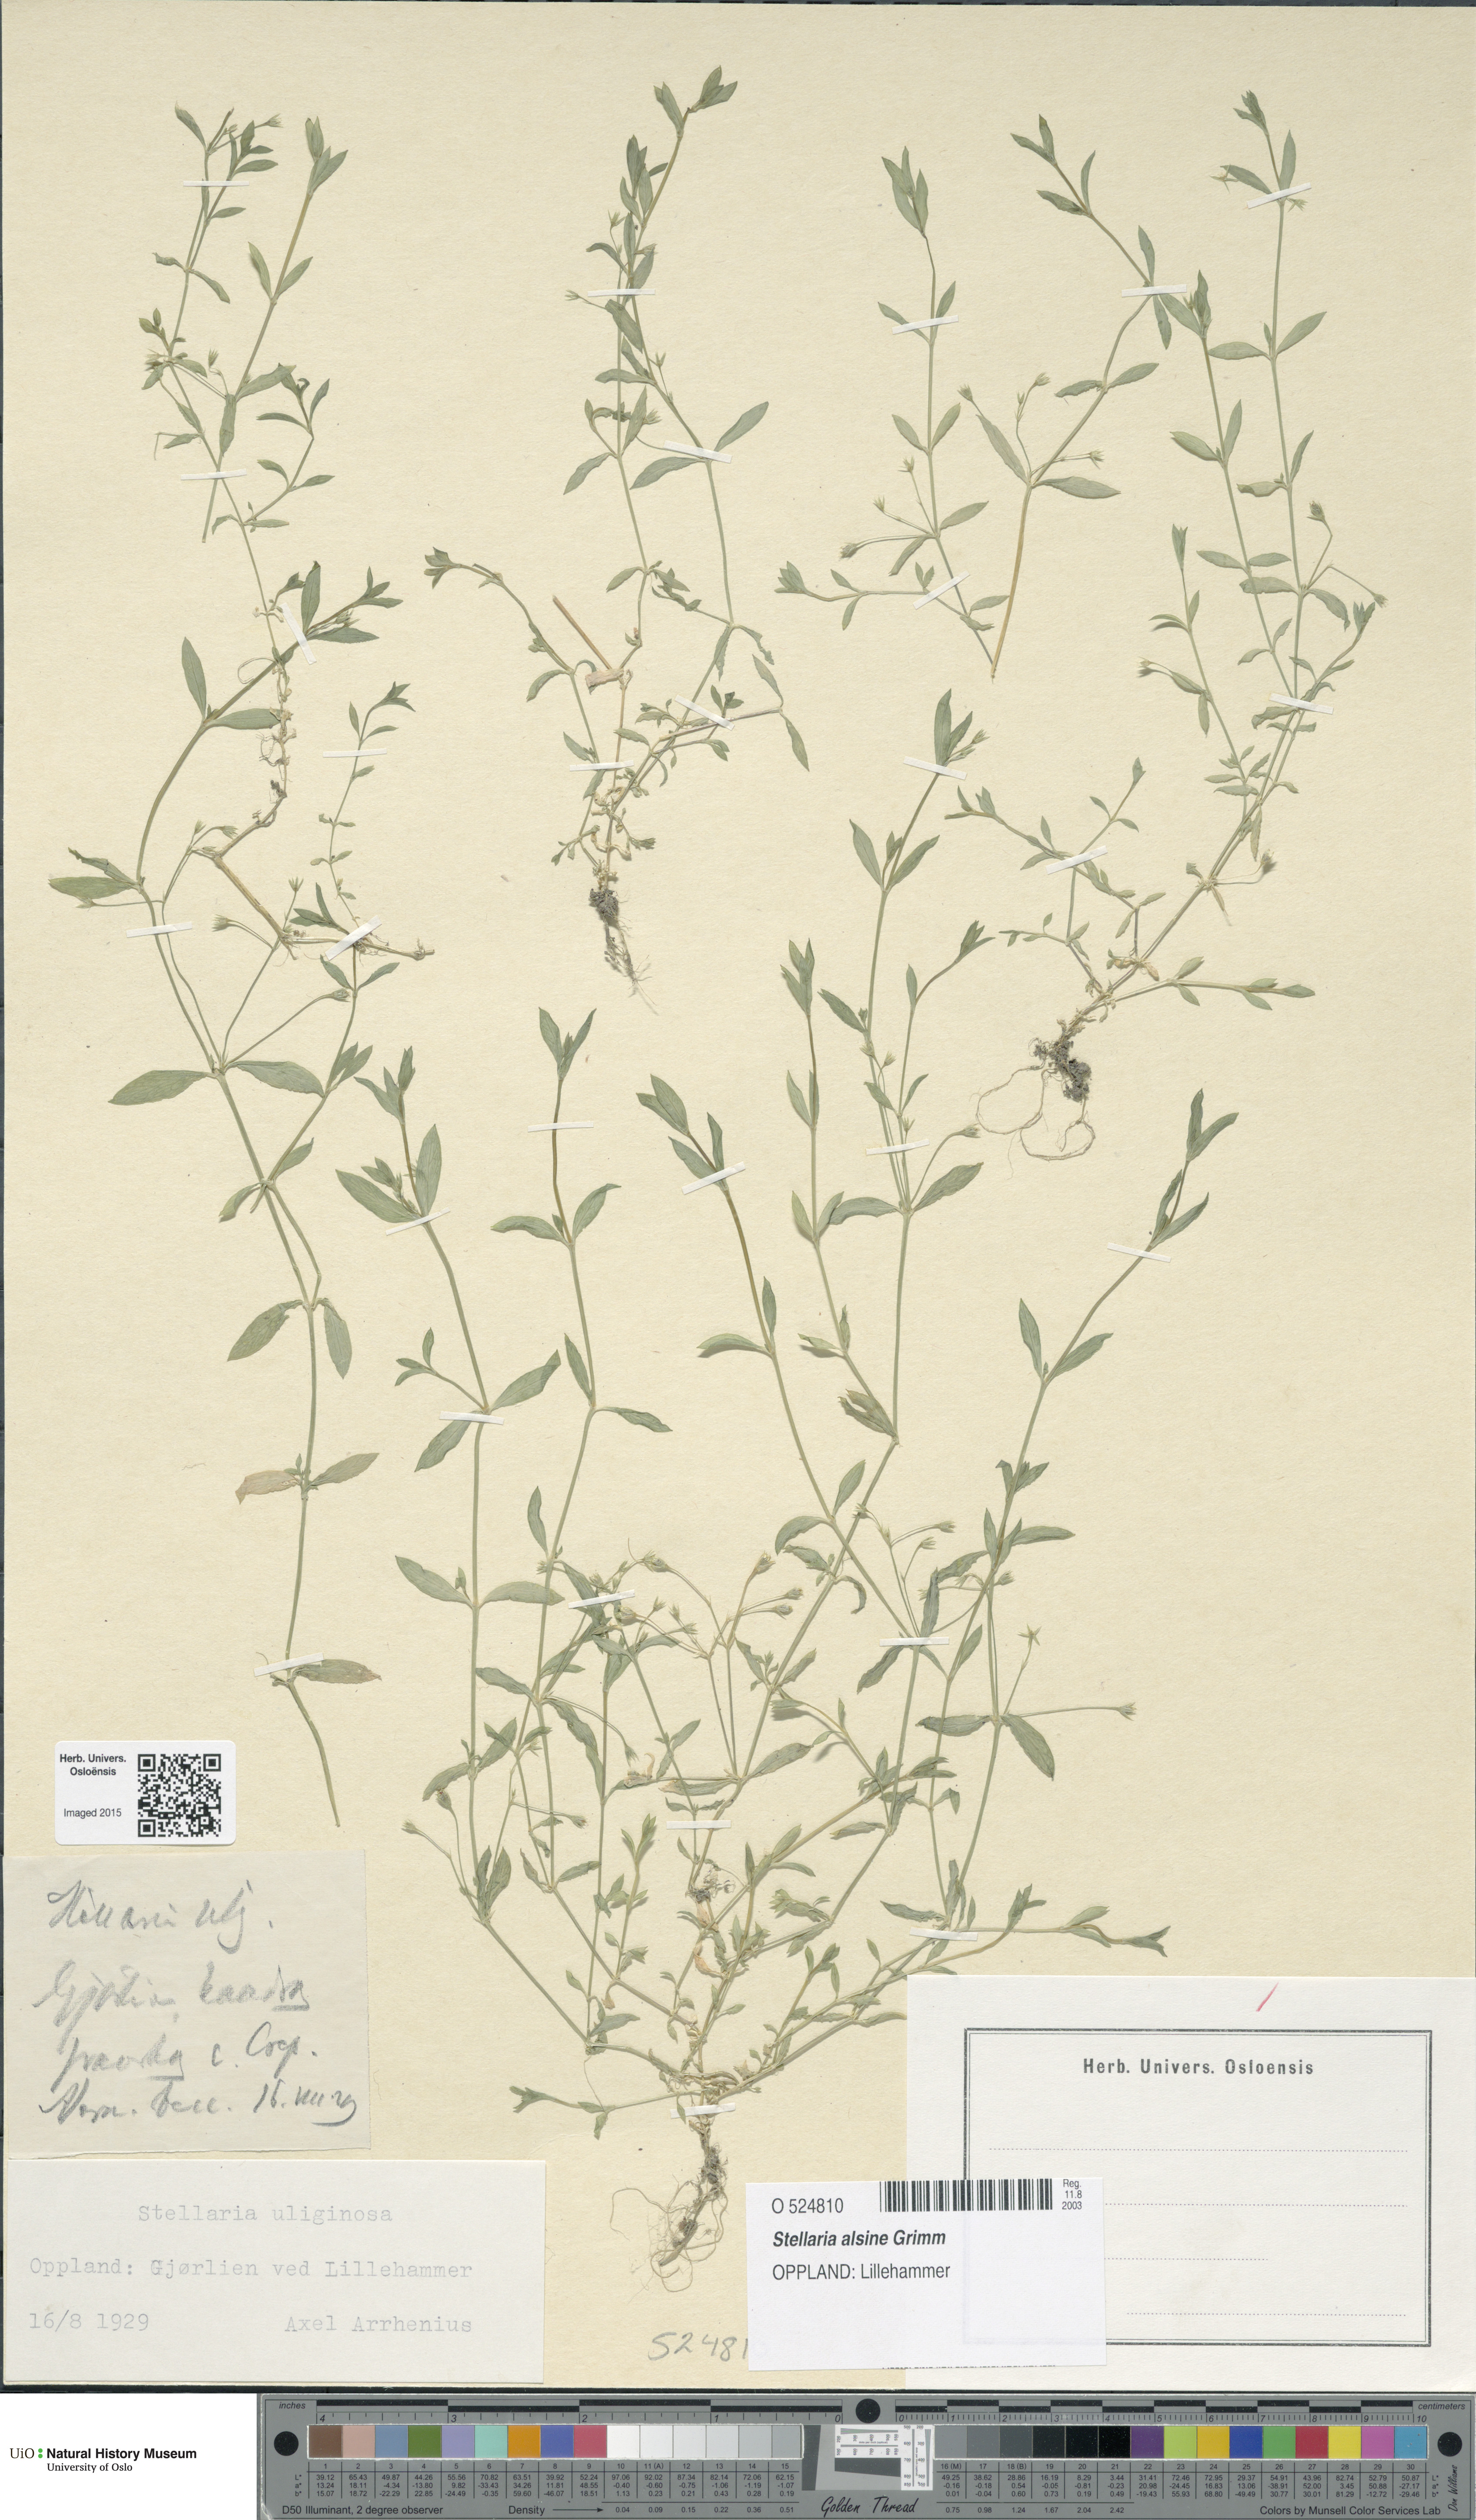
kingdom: Plantae
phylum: Tracheophyta
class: Magnoliopsida
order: Caryophyllales
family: Caryophyllaceae
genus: Stellaria
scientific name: Stellaria alsine
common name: Bog stitchwort
